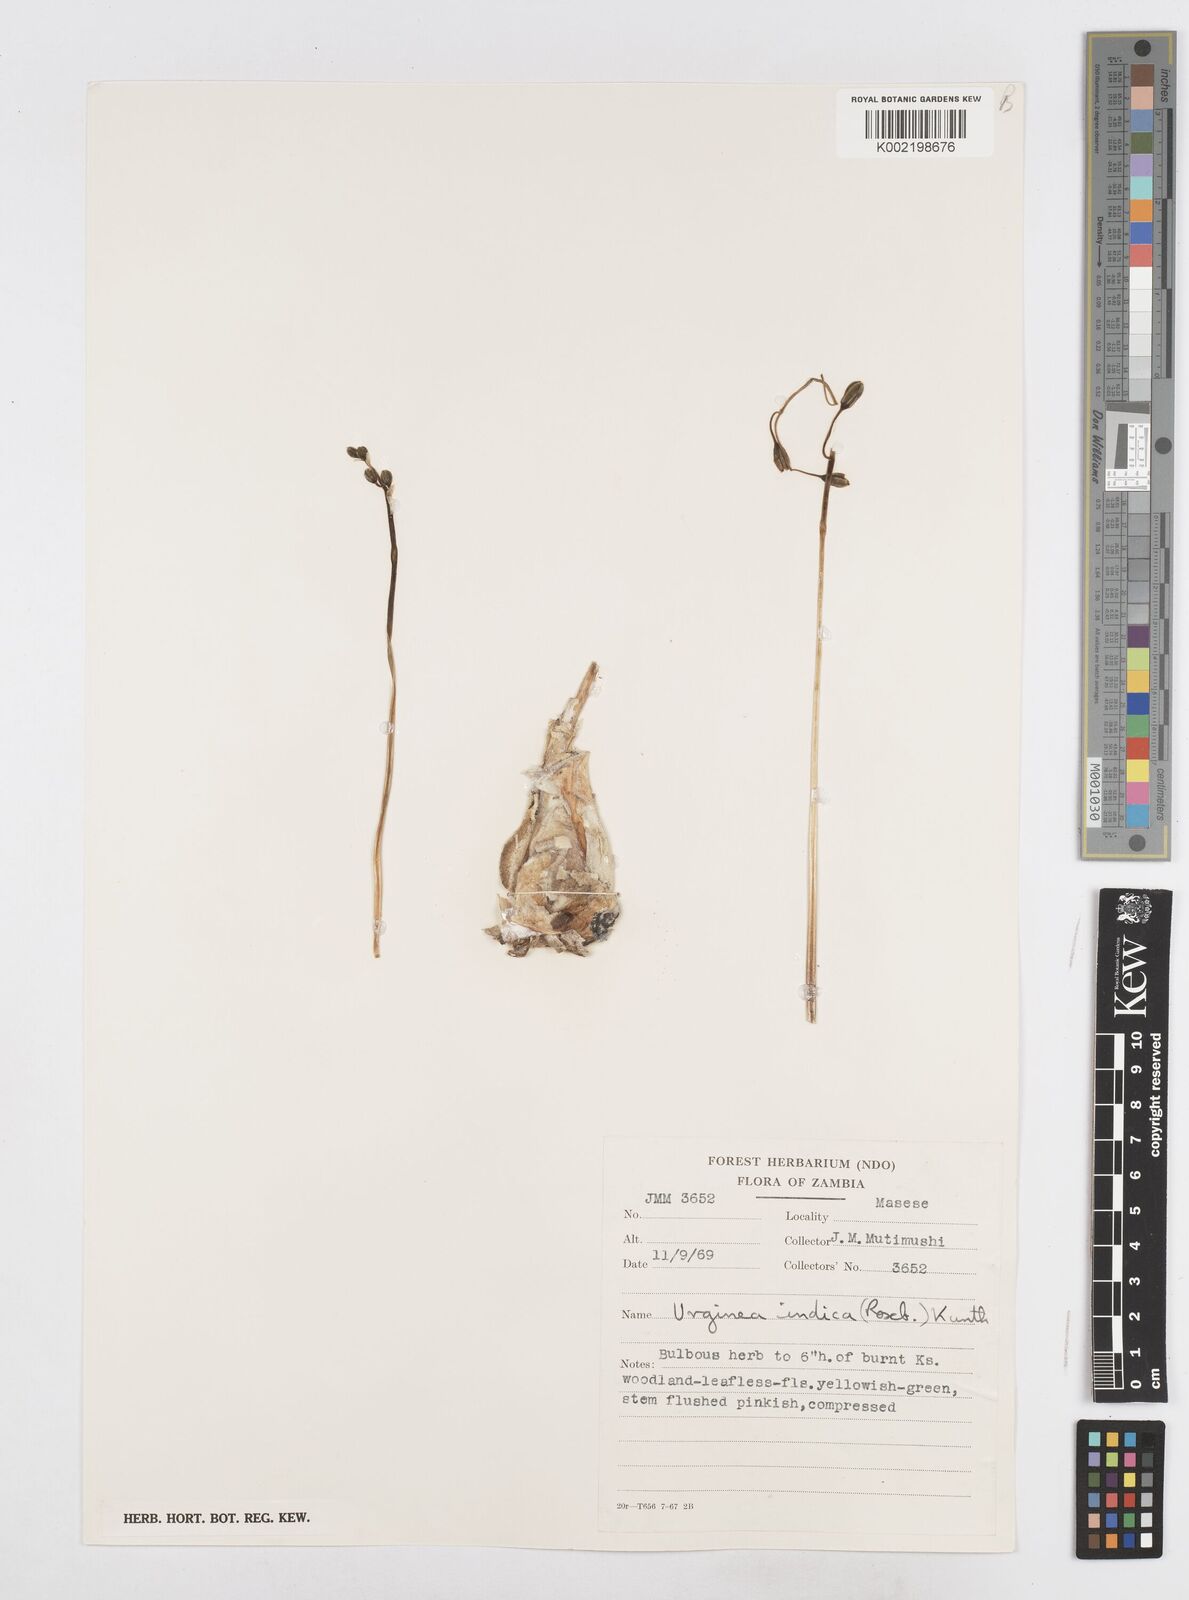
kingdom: Plantae
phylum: Tracheophyta
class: Liliopsida
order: Asparagales
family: Asparagaceae
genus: Drimia
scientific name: Drimia indica
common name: Indian-squill
